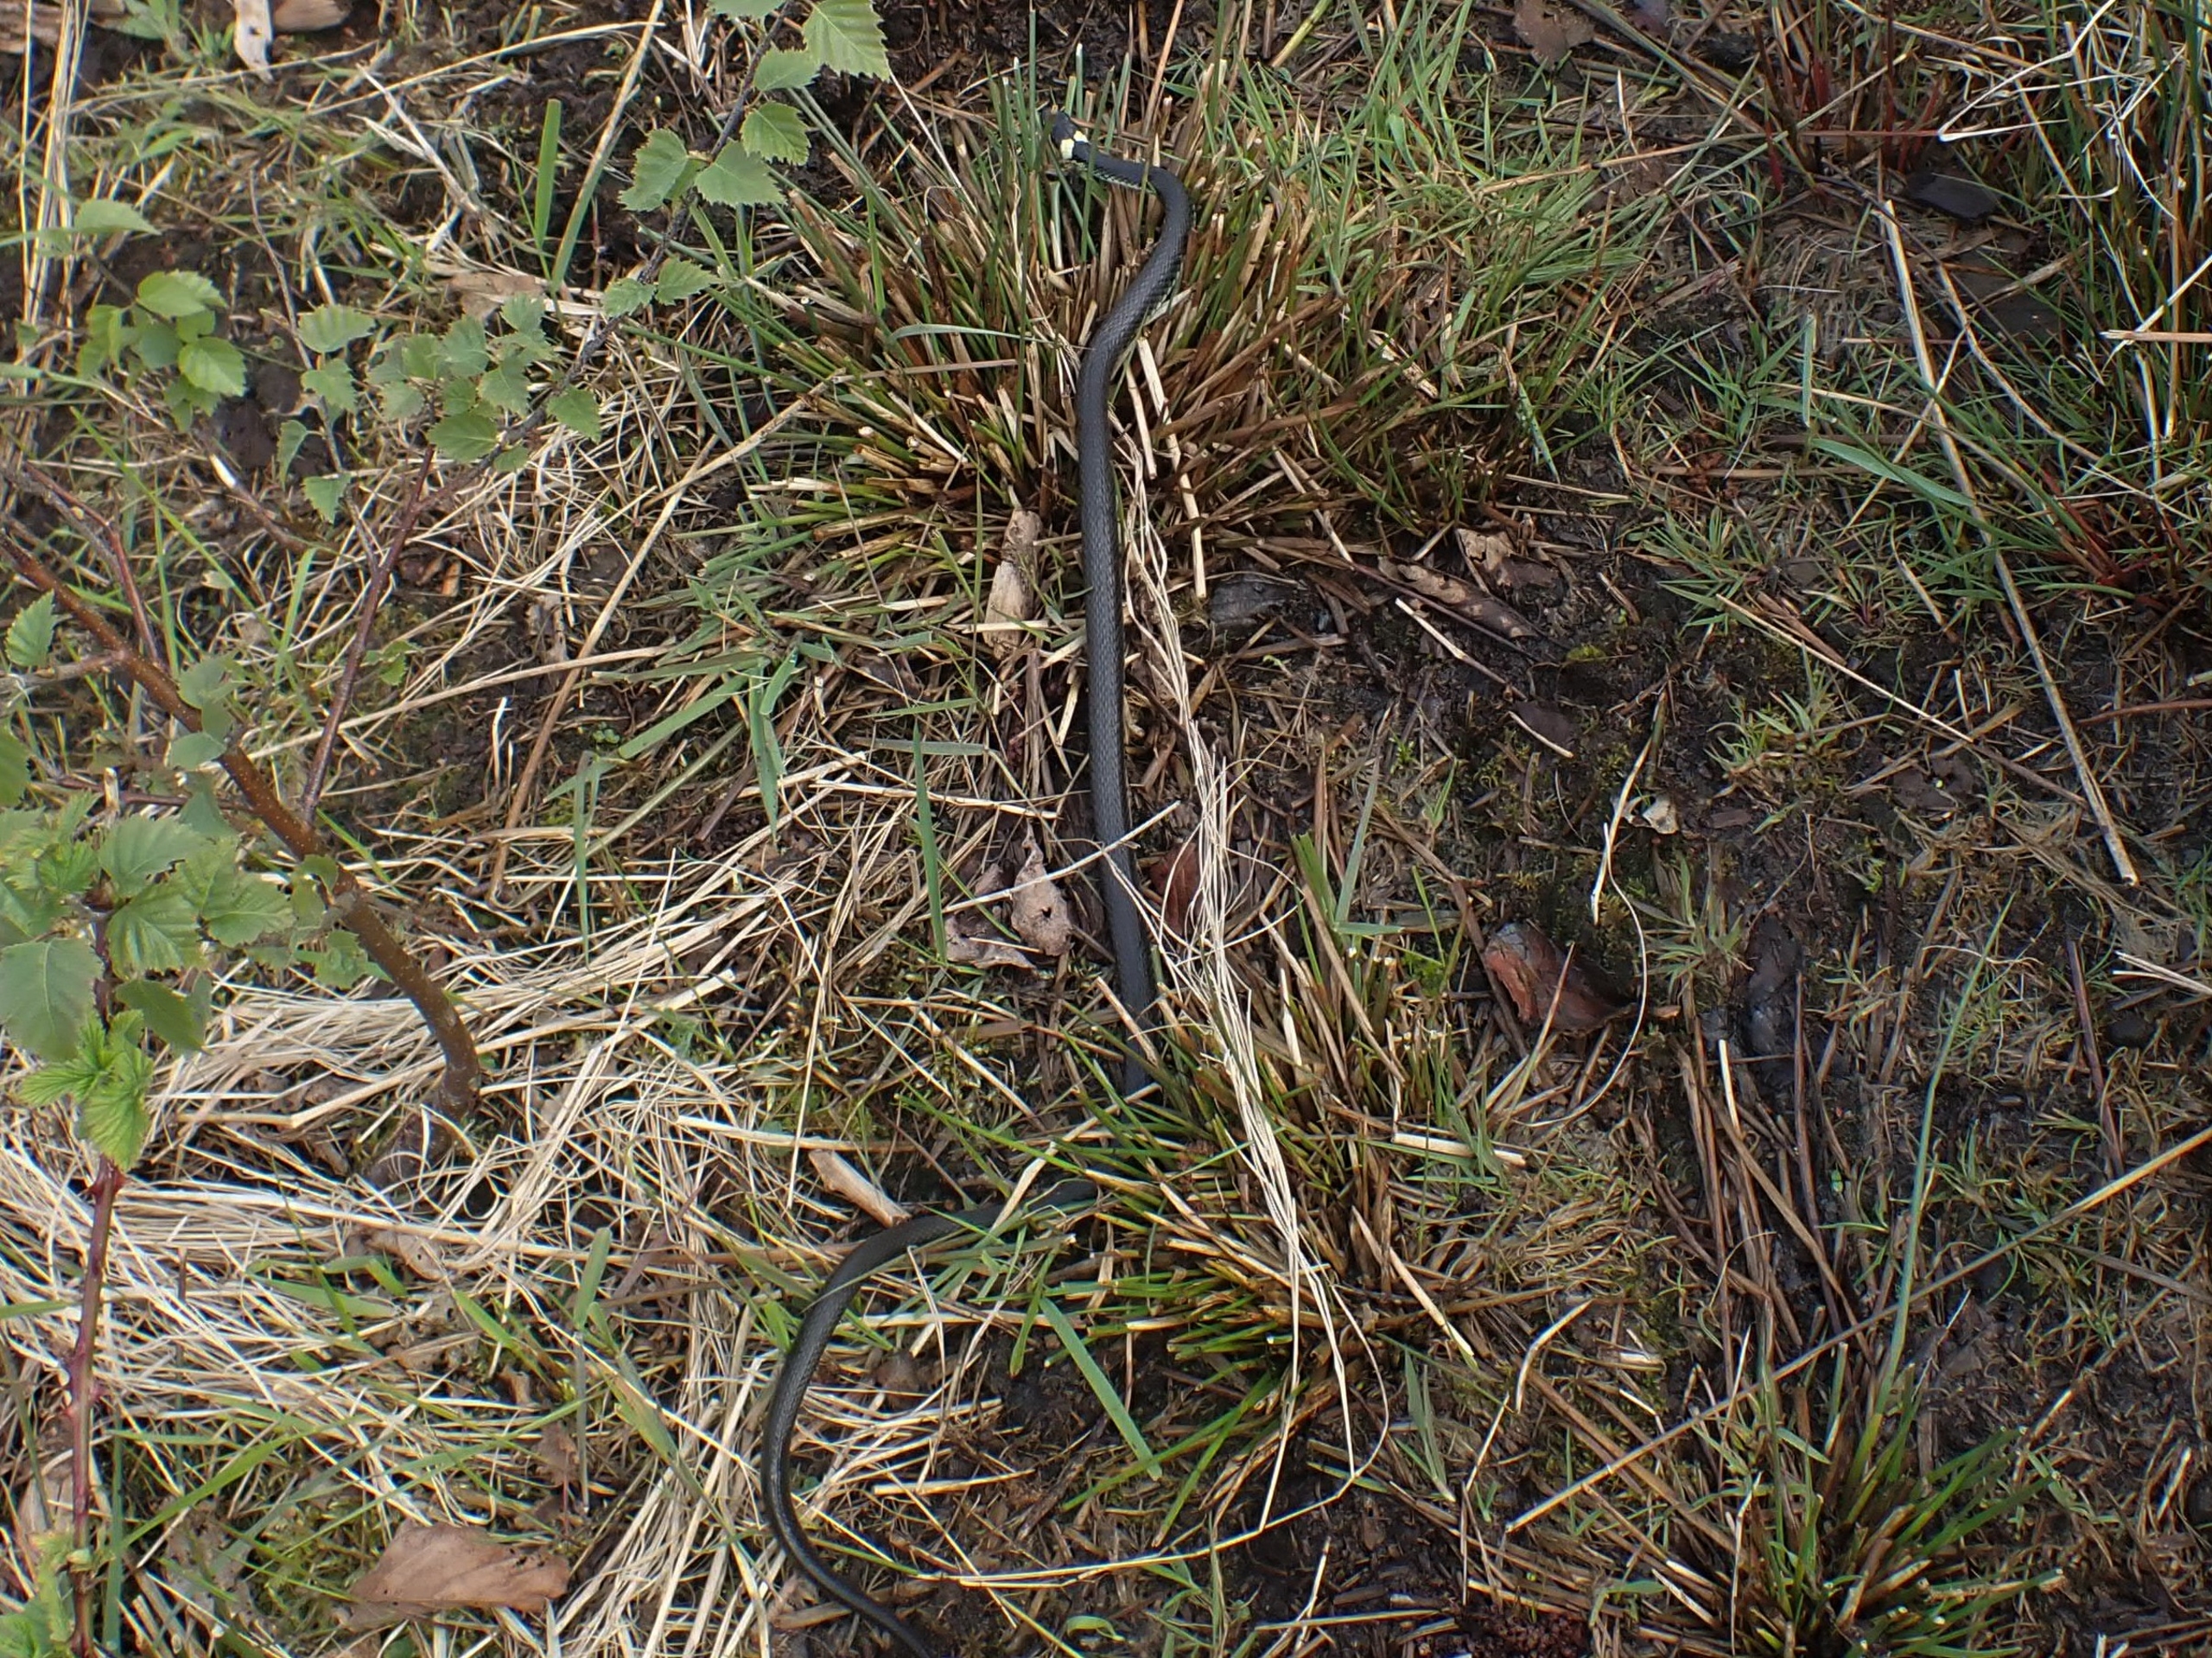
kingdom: Animalia
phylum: Chordata
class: Squamata
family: Colubridae
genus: Natrix
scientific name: Natrix natrix
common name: Snog
